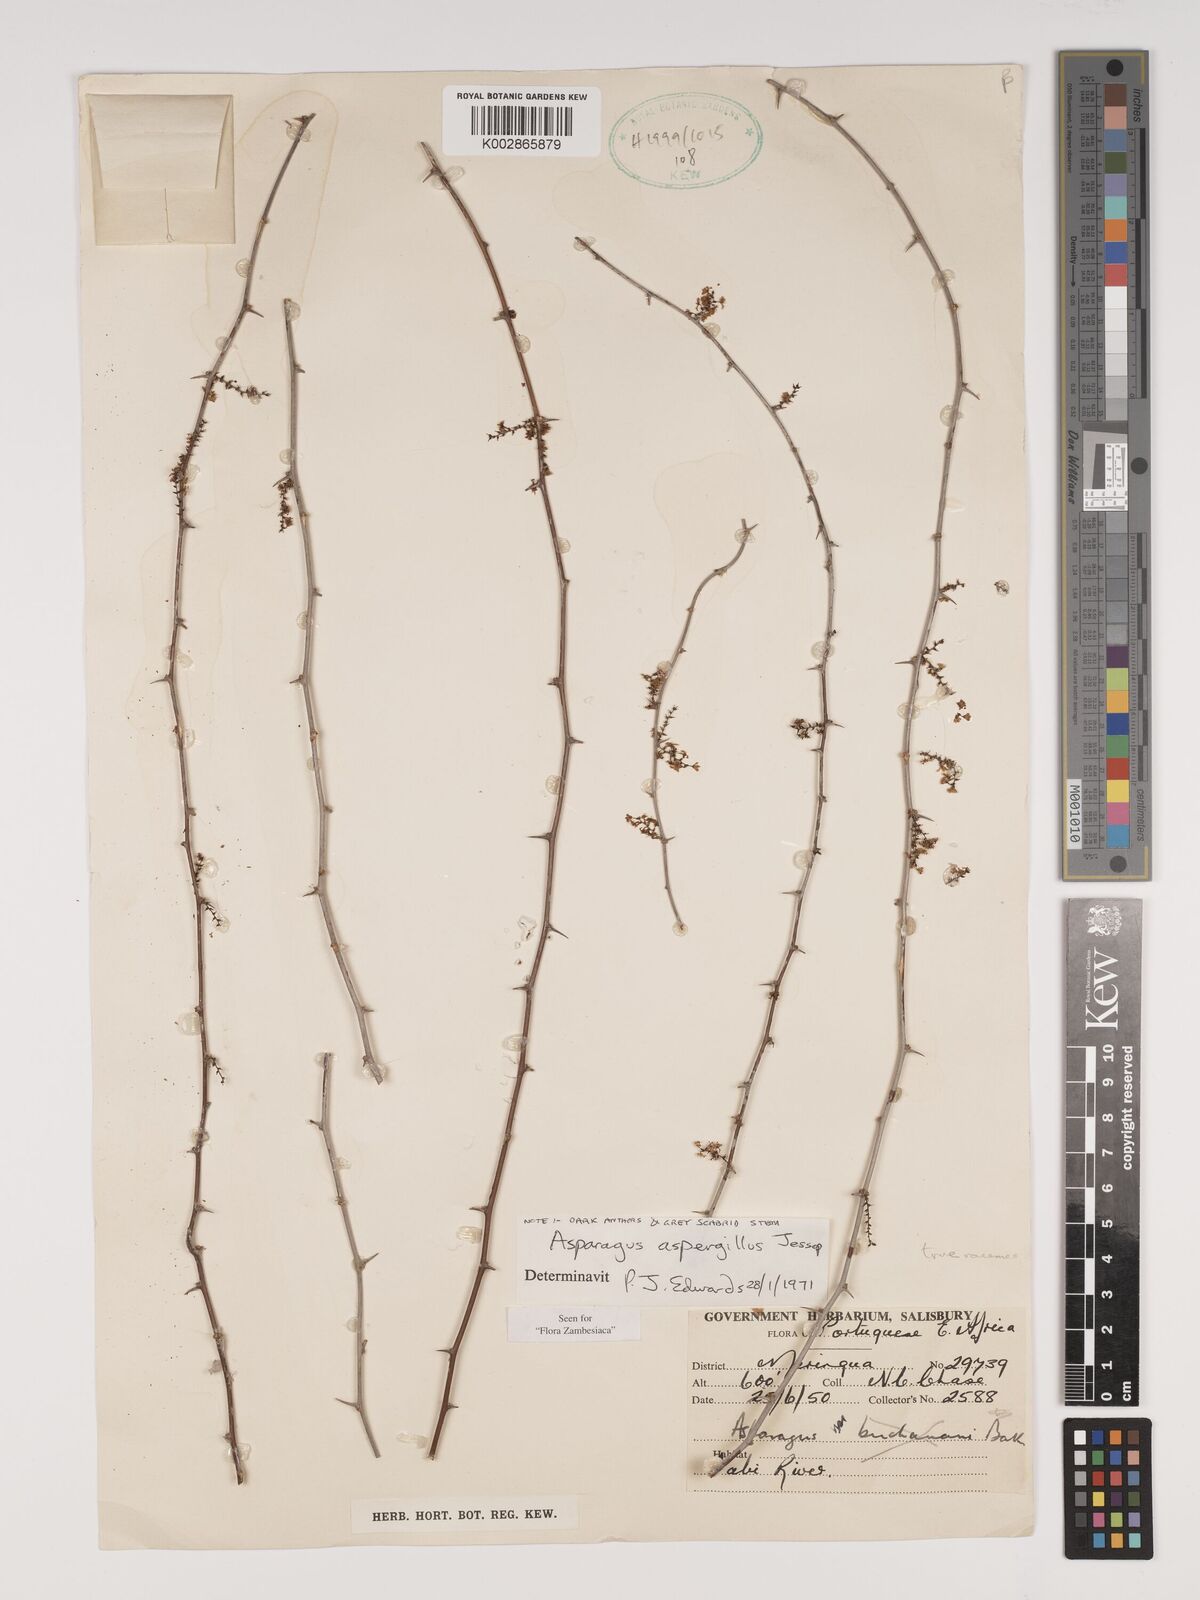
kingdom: Plantae
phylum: Tracheophyta
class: Liliopsida
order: Asparagales
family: Asparagaceae
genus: Asparagus
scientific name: Asparagus aspergillus
